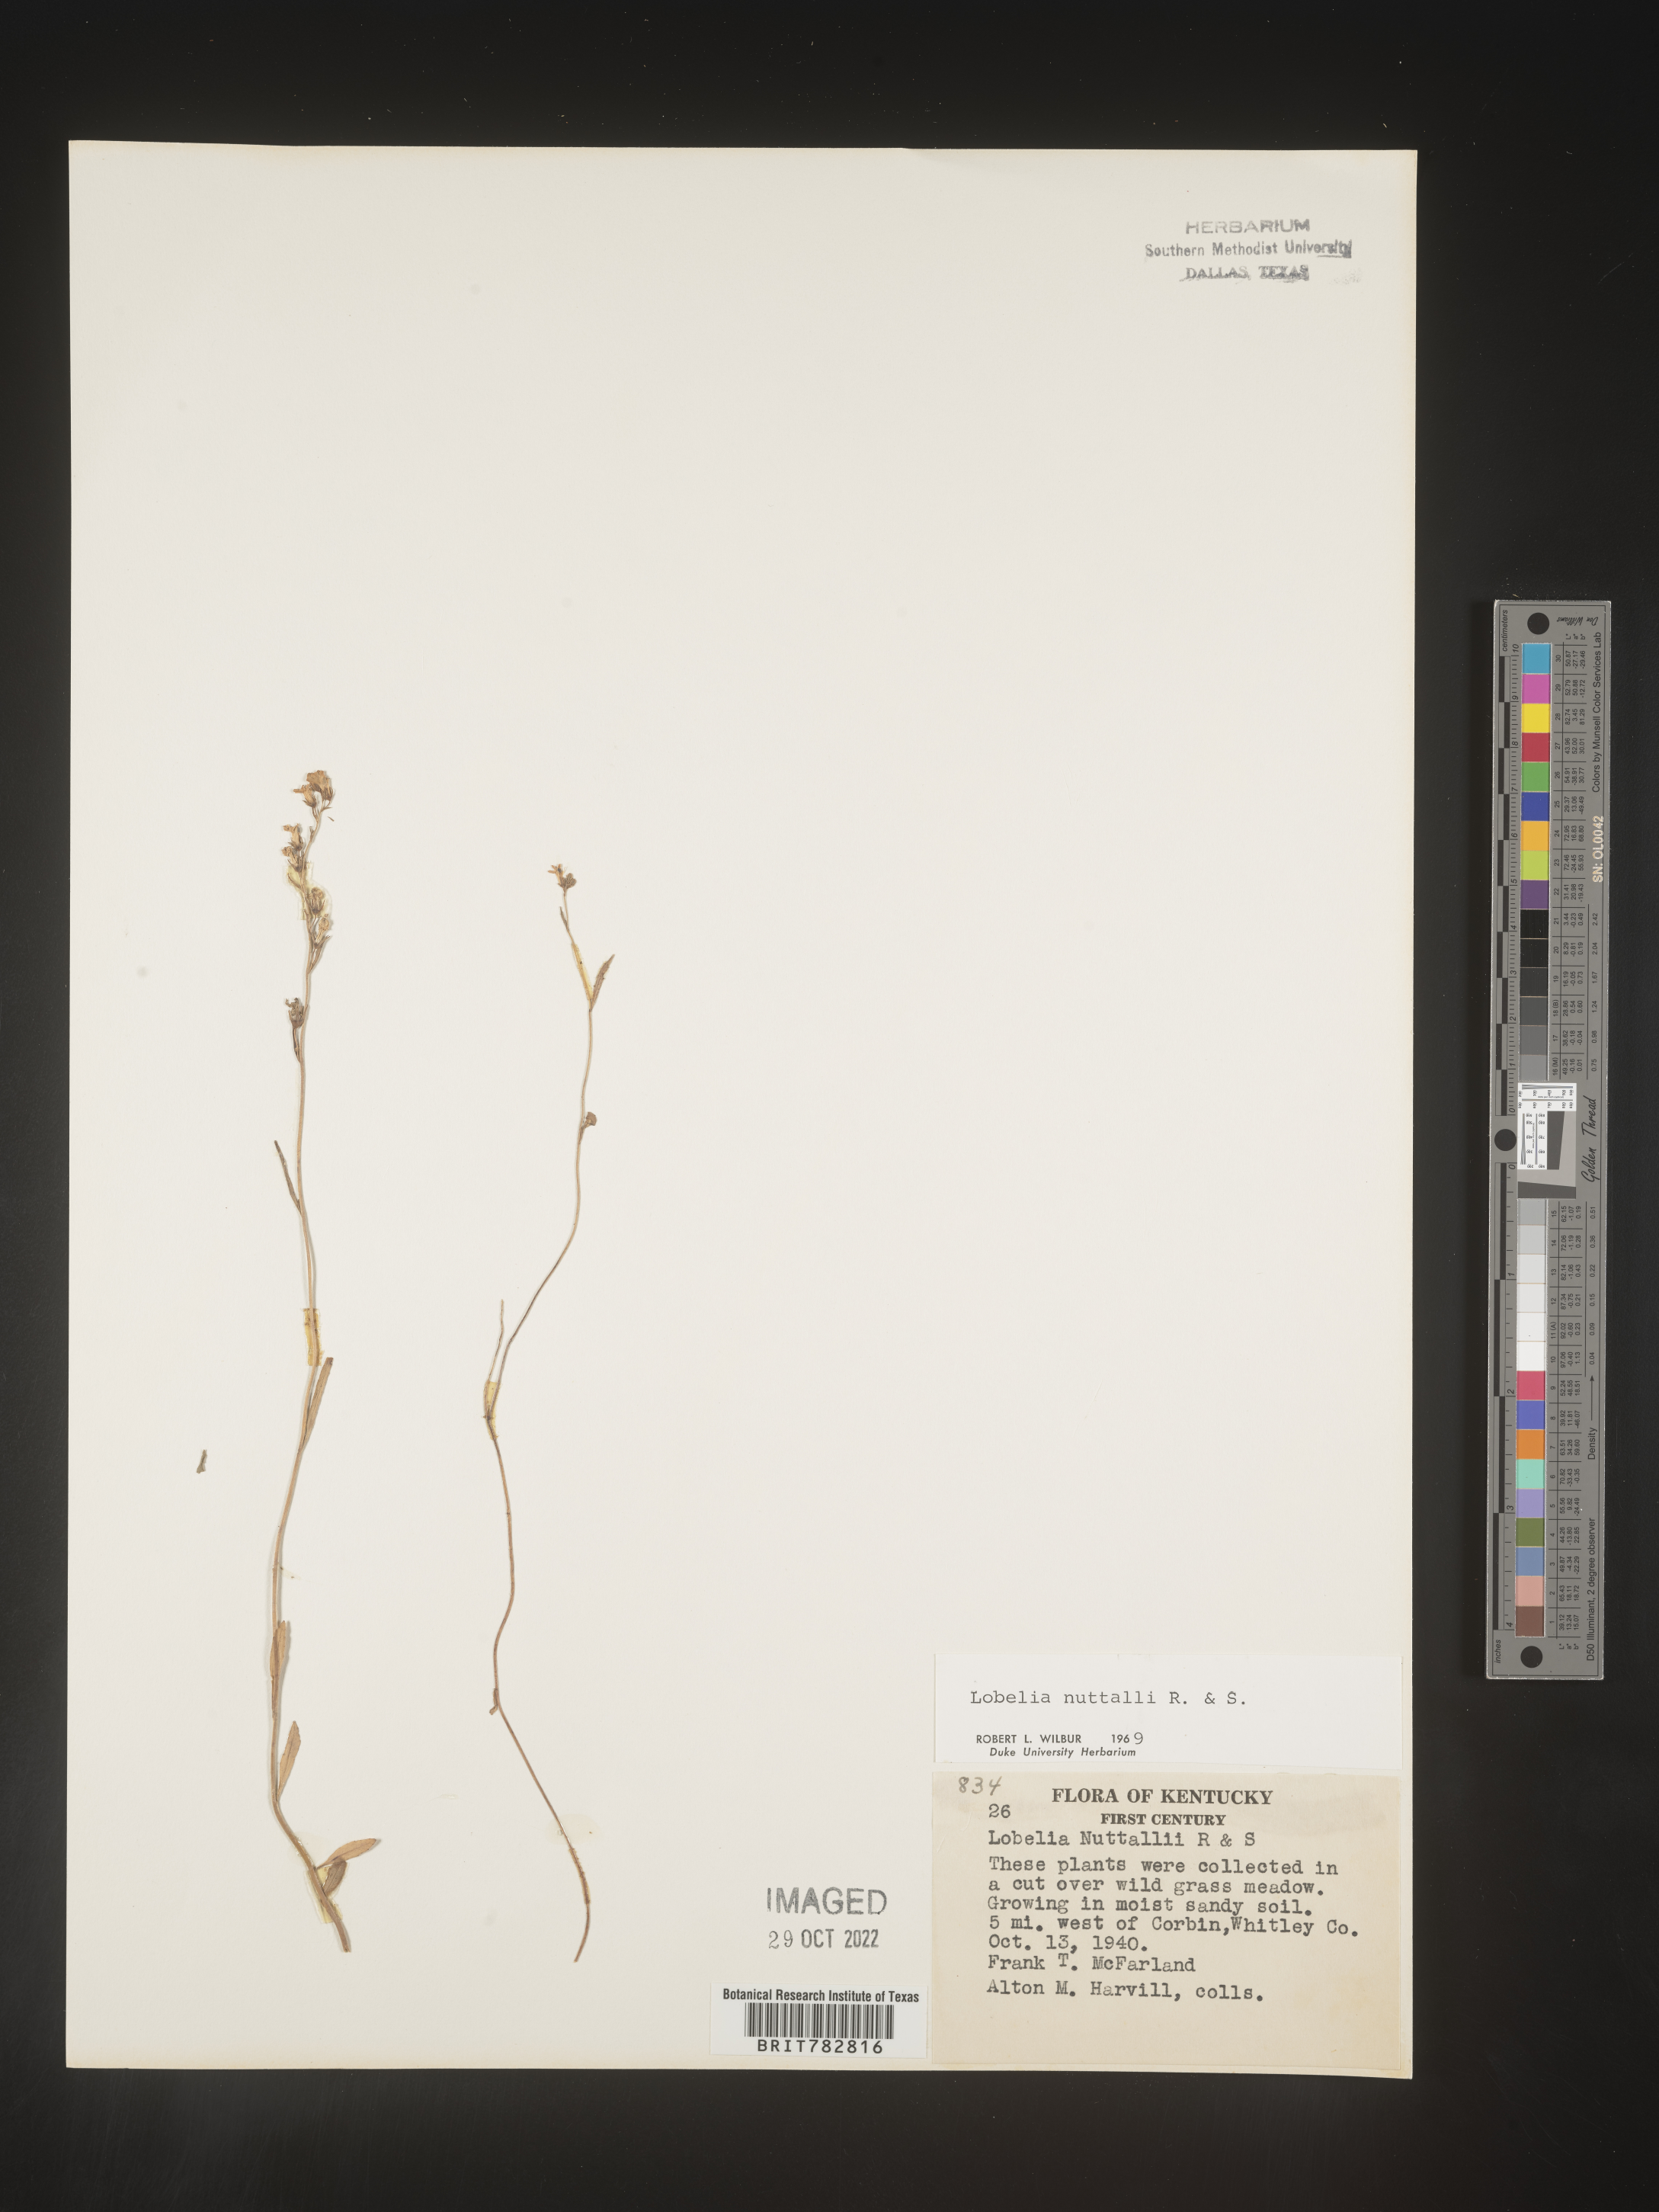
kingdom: Plantae
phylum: Tracheophyta
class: Magnoliopsida
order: Asterales
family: Campanulaceae
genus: Lobelia
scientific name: Lobelia nuttallii
